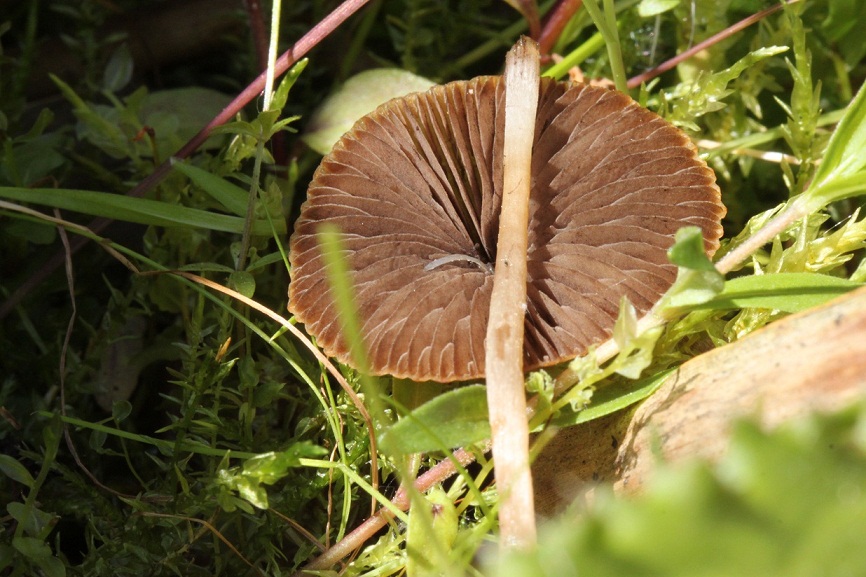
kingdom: Fungi
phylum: Basidiomycota
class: Agaricomycetes
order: Agaricales
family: Psathyrellaceae
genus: Psathyrella
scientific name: Psathyrella rubiginosa
